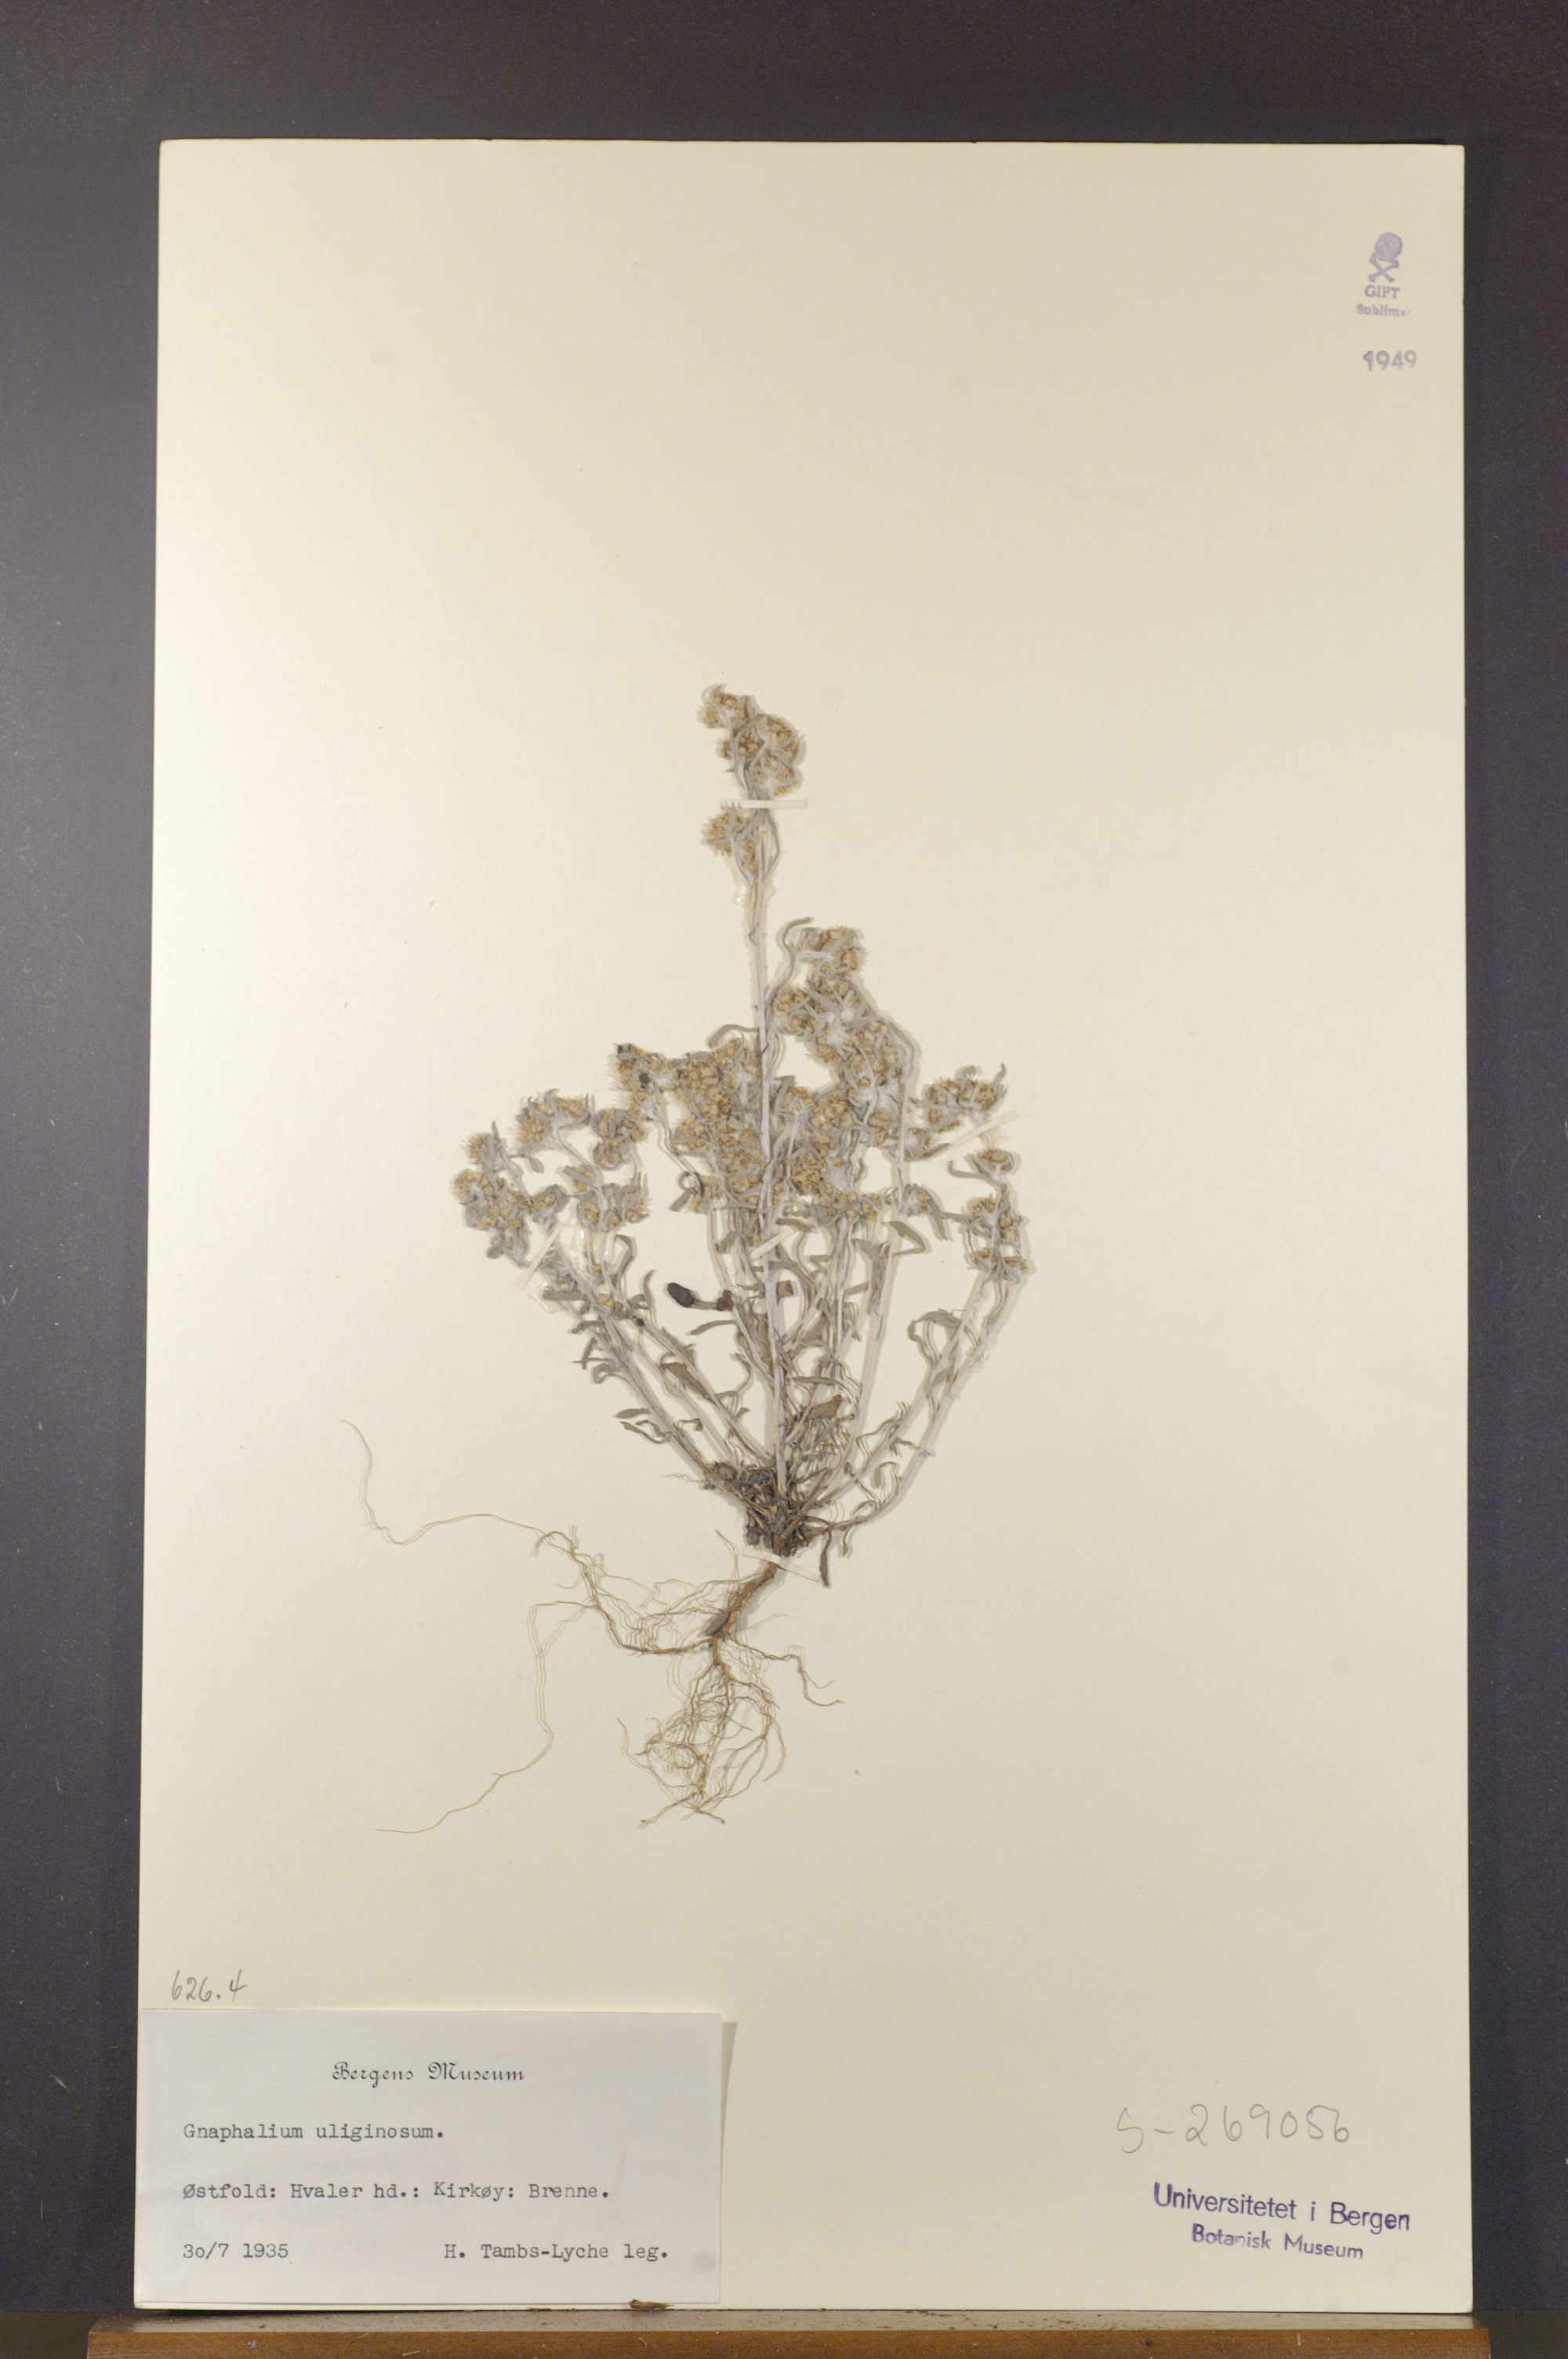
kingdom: Plantae
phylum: Tracheophyta
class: Magnoliopsida
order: Asterales
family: Asteraceae
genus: Gnaphalium
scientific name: Gnaphalium uliginosum
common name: Marsh cudweed
